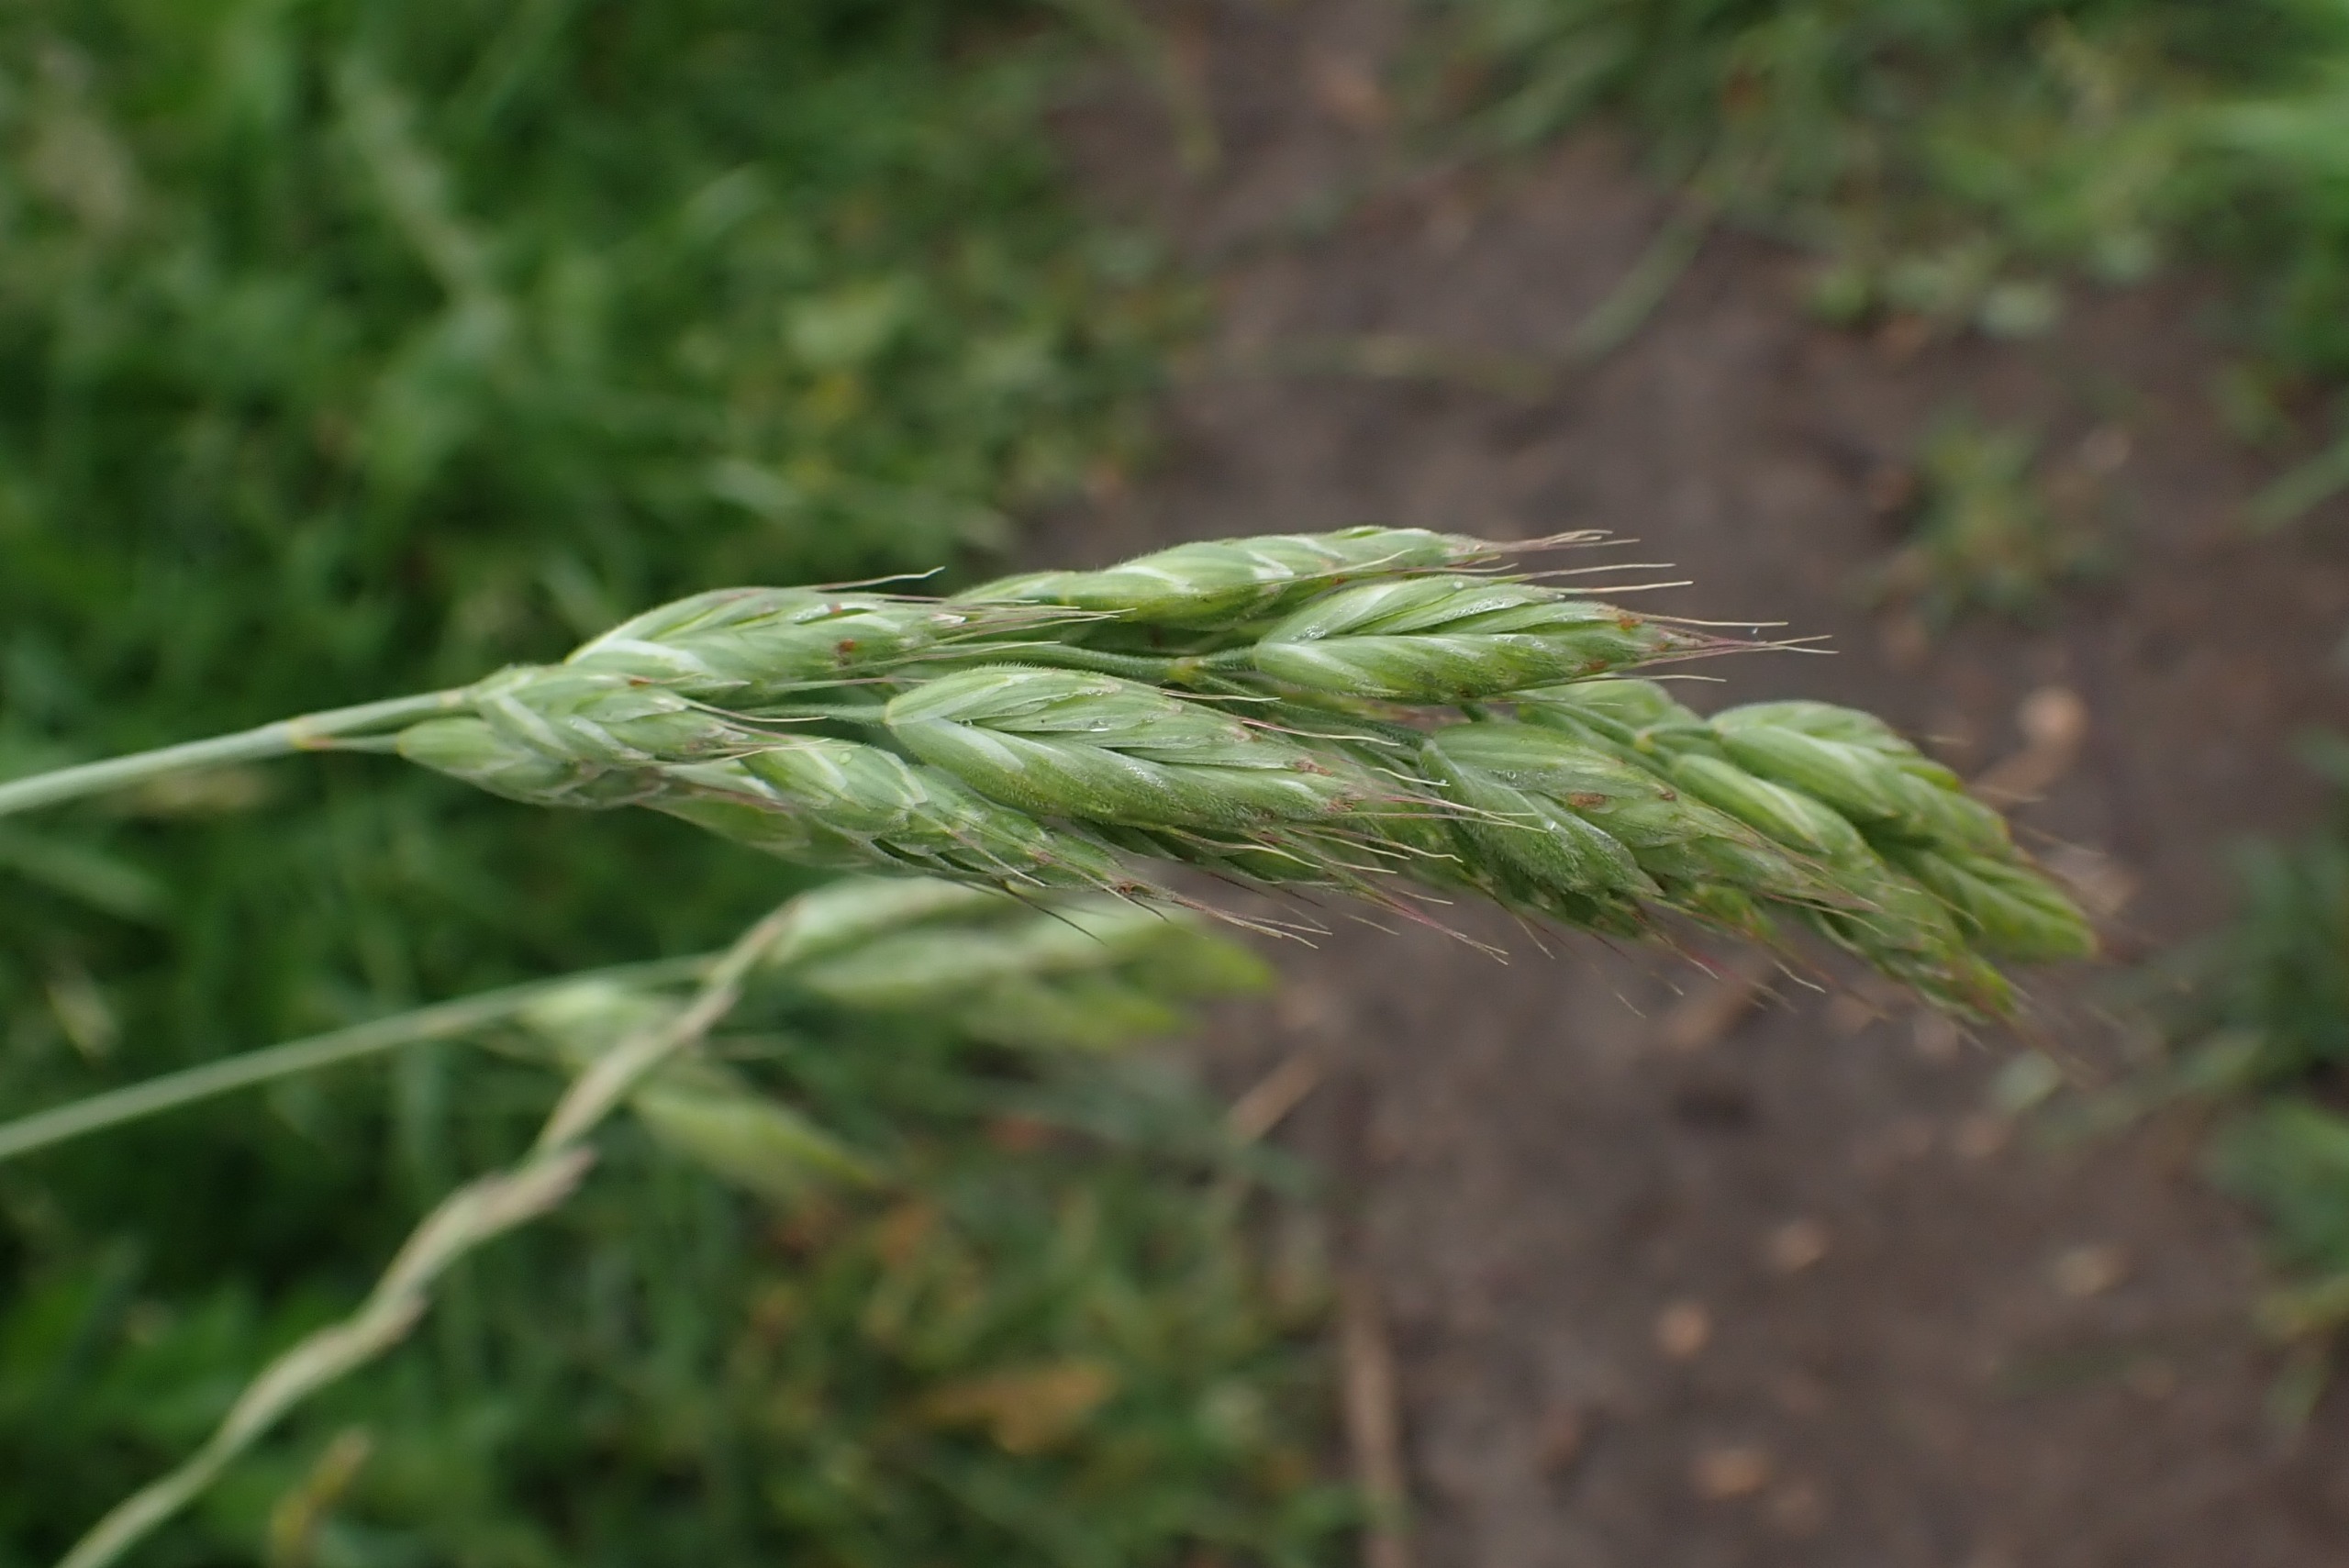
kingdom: Plantae
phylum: Tracheophyta
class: Liliopsida
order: Poales
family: Poaceae
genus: Bromus
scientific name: Bromus hordeaceus
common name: Blød hejre
